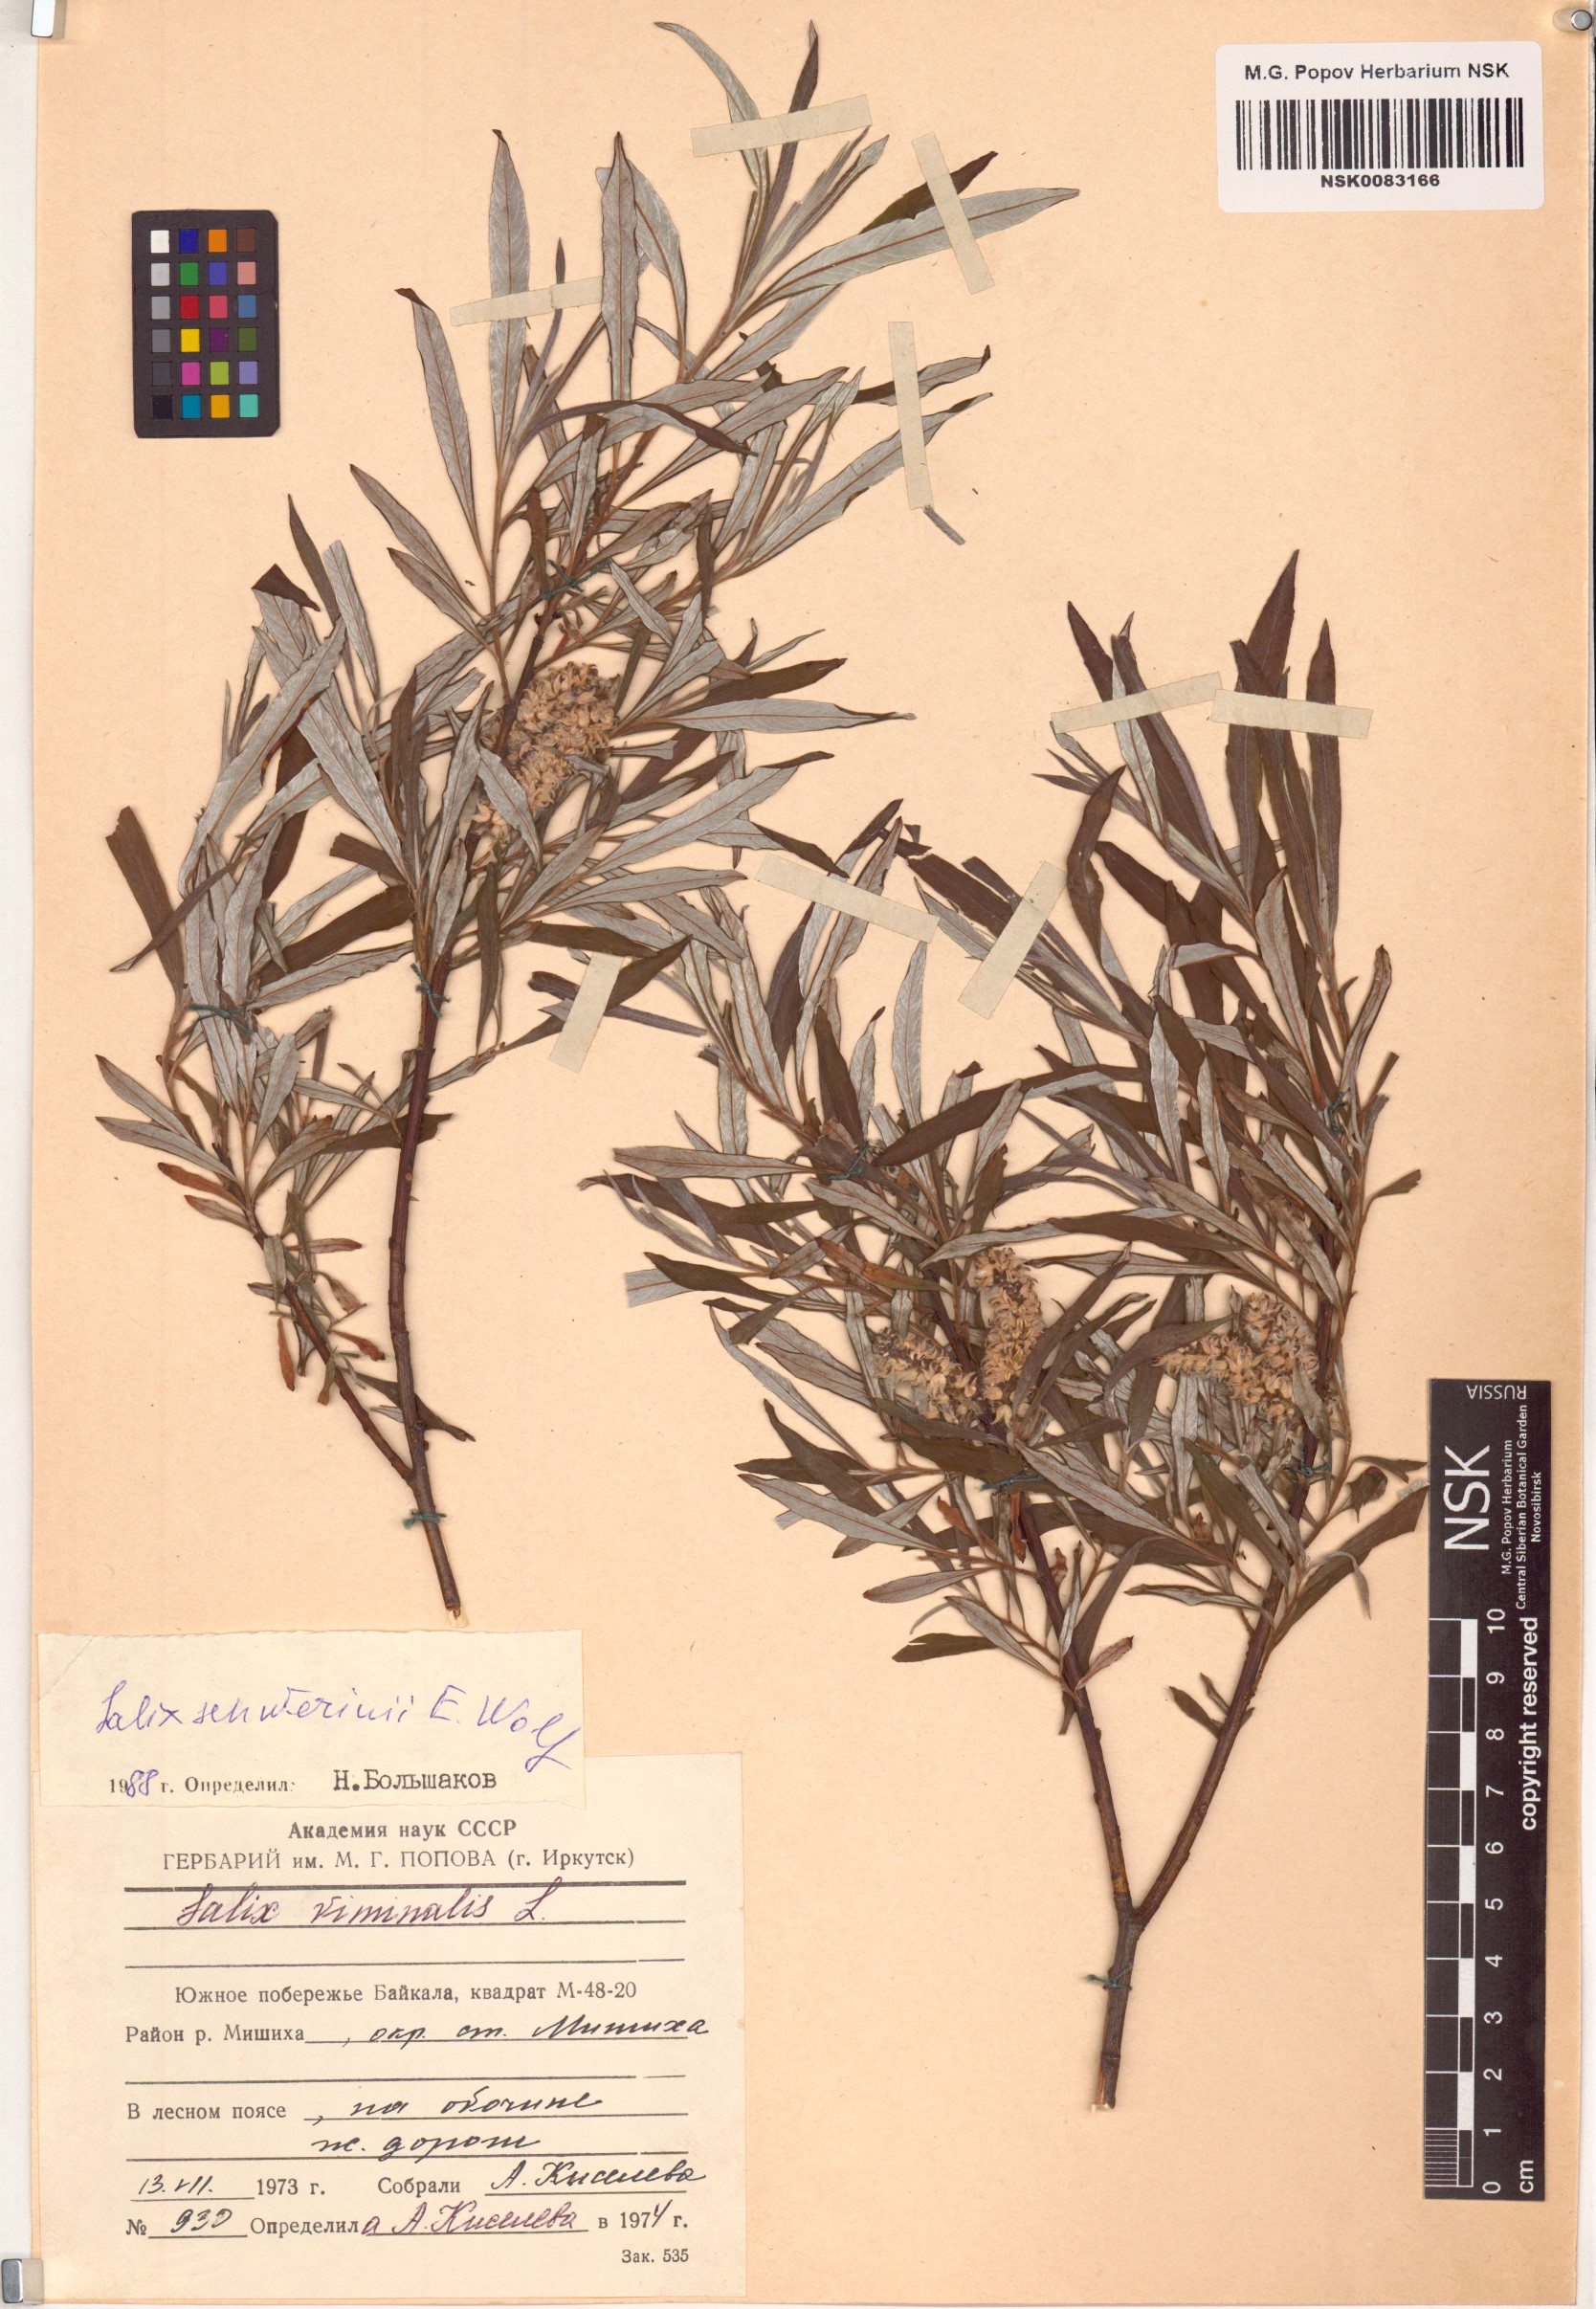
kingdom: Plantae
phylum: Tracheophyta
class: Magnoliopsida
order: Malpighiales
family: Salicaceae
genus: Salix
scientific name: Salix schwerinii
